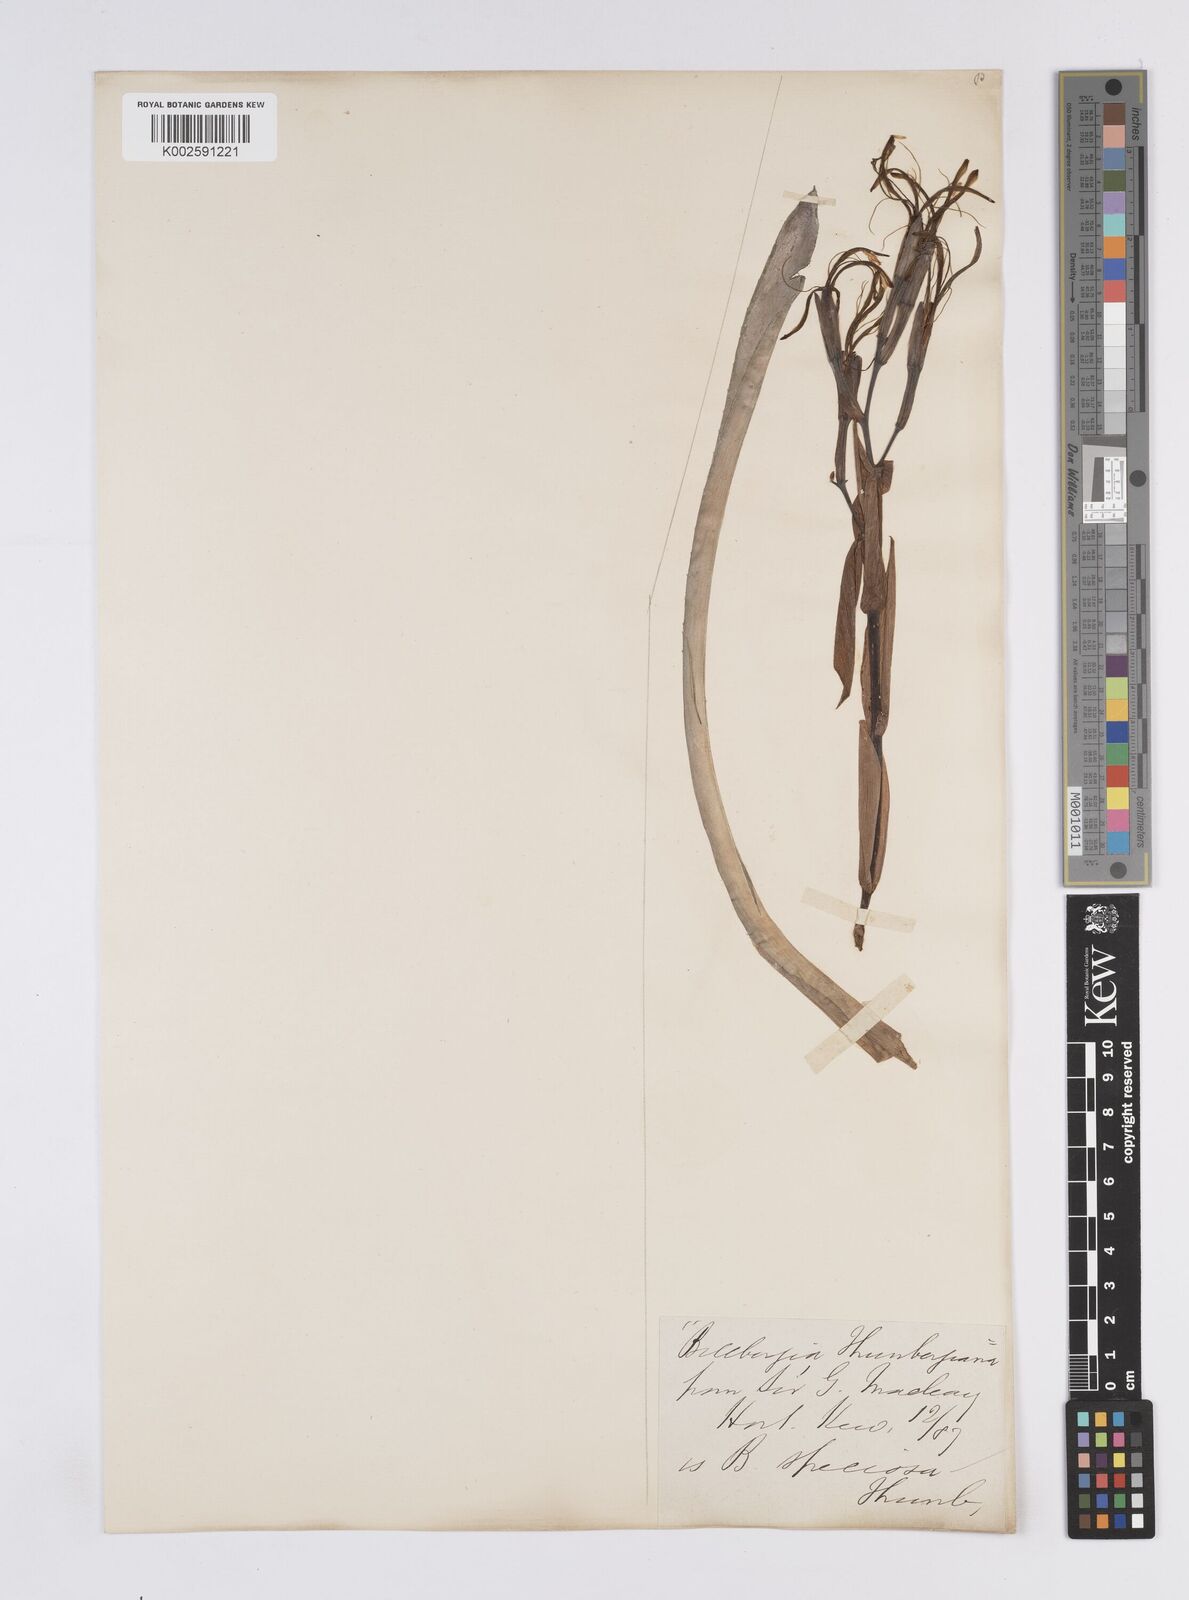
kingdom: Plantae
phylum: Tracheophyta
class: Liliopsida
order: Poales
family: Bromeliaceae
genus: Billbergia
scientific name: Billbergia amoena
